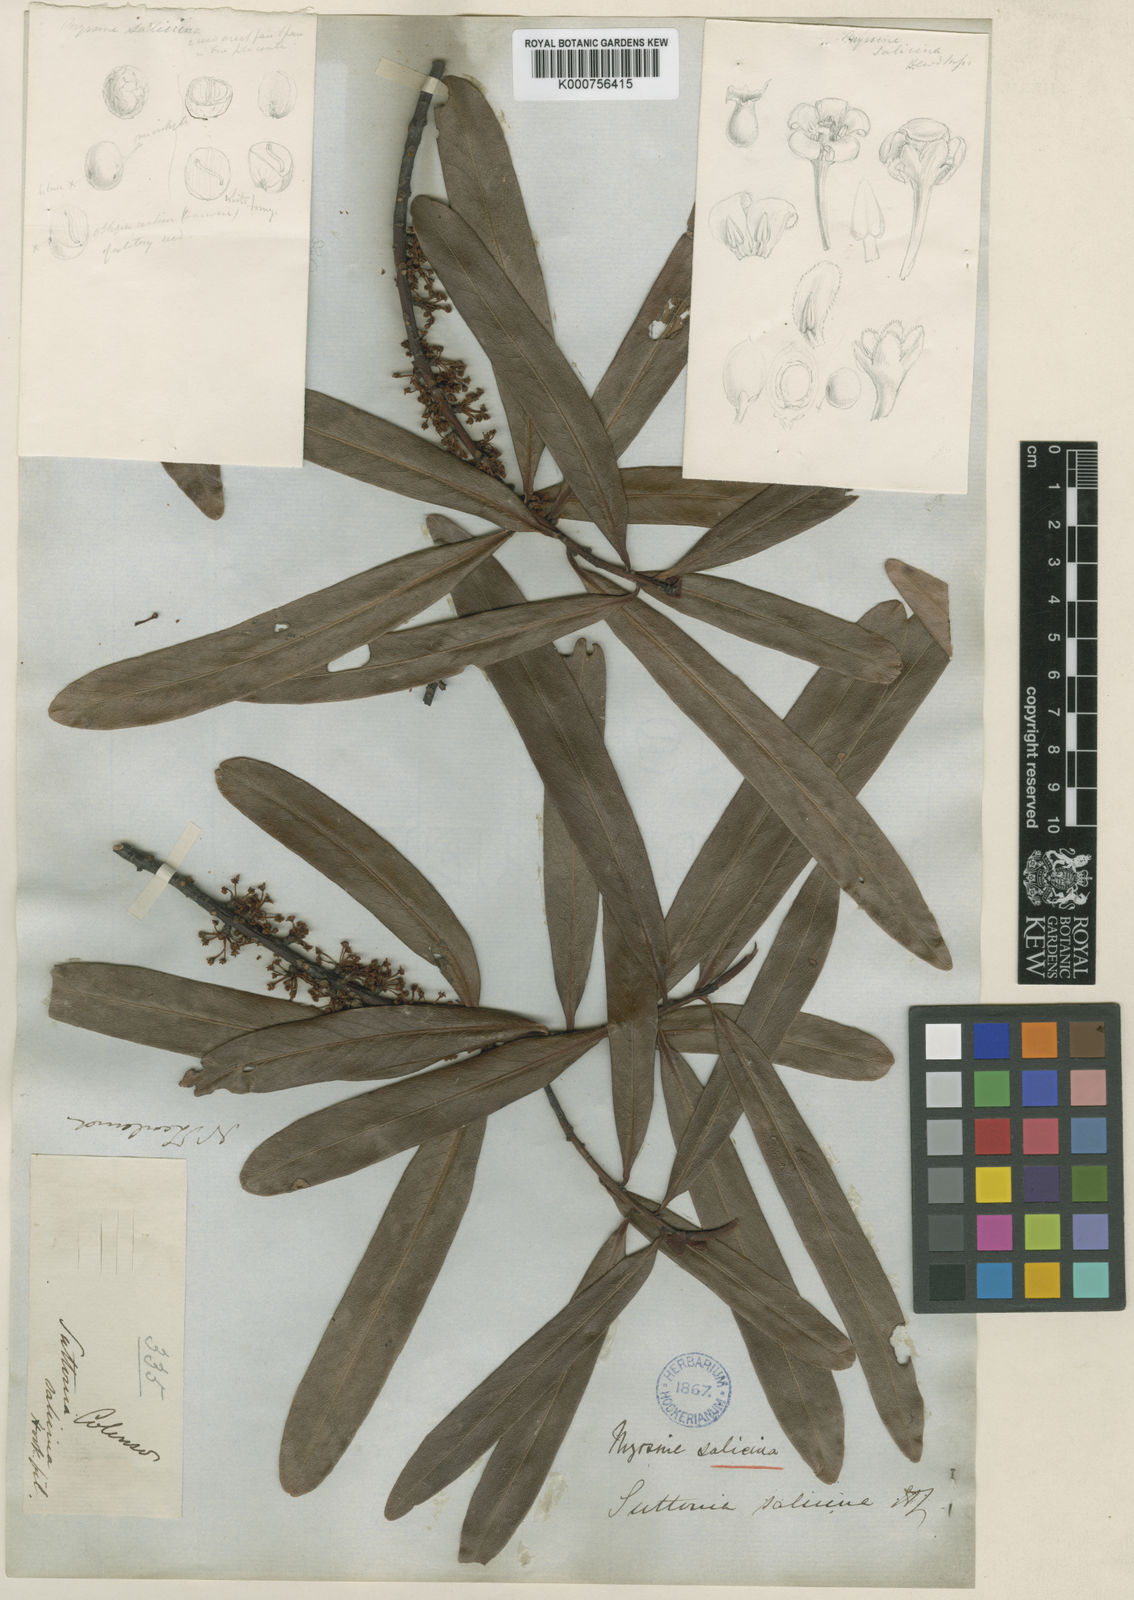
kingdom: Plantae
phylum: Tracheophyta
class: Magnoliopsida
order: Ericales
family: Primulaceae
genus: Myrsine
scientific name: Myrsine salicina
